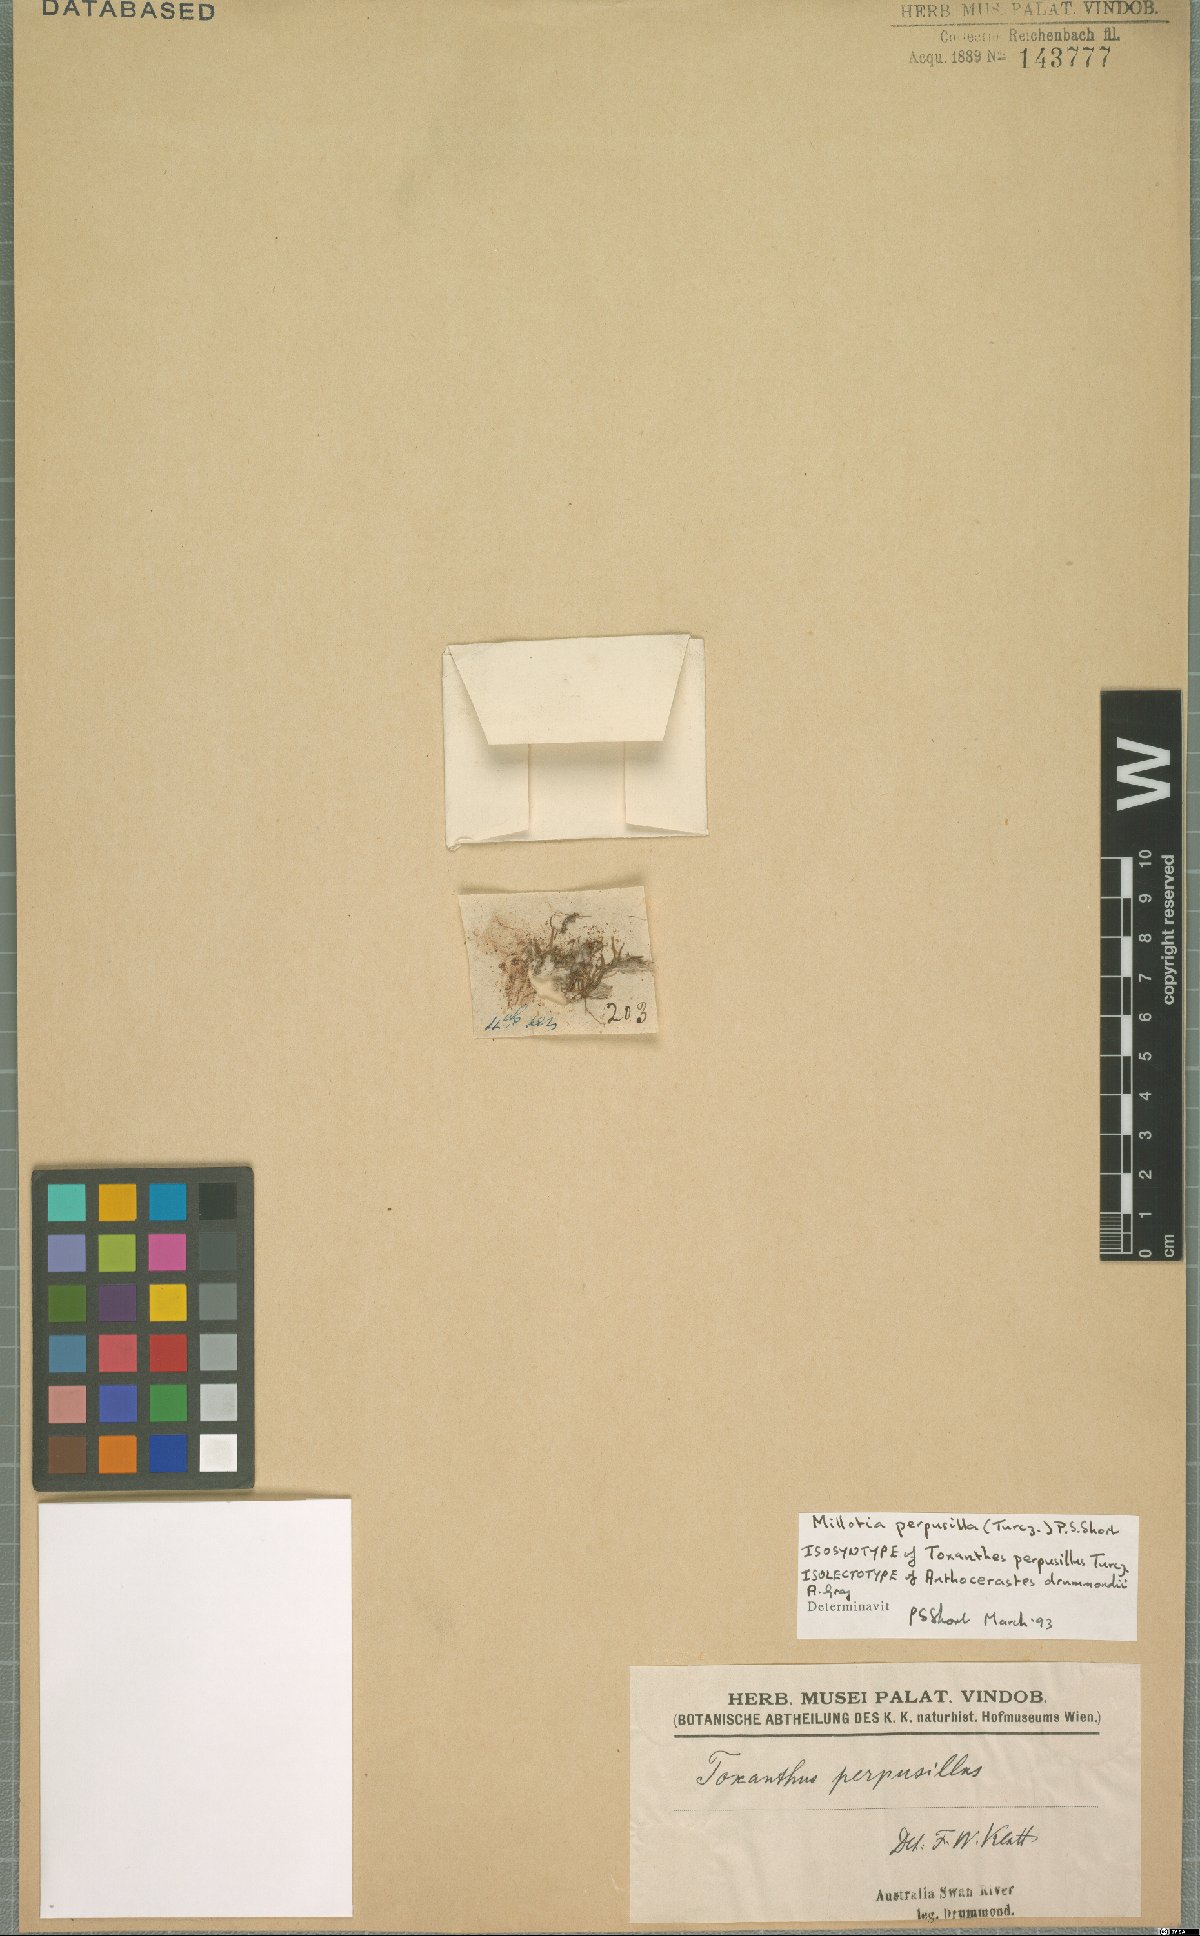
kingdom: Plantae
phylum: Tracheophyta
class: Magnoliopsida
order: Asterales
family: Asteraceae
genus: Millotia
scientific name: Millotia perpusilla
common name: Tiny bow-flower
